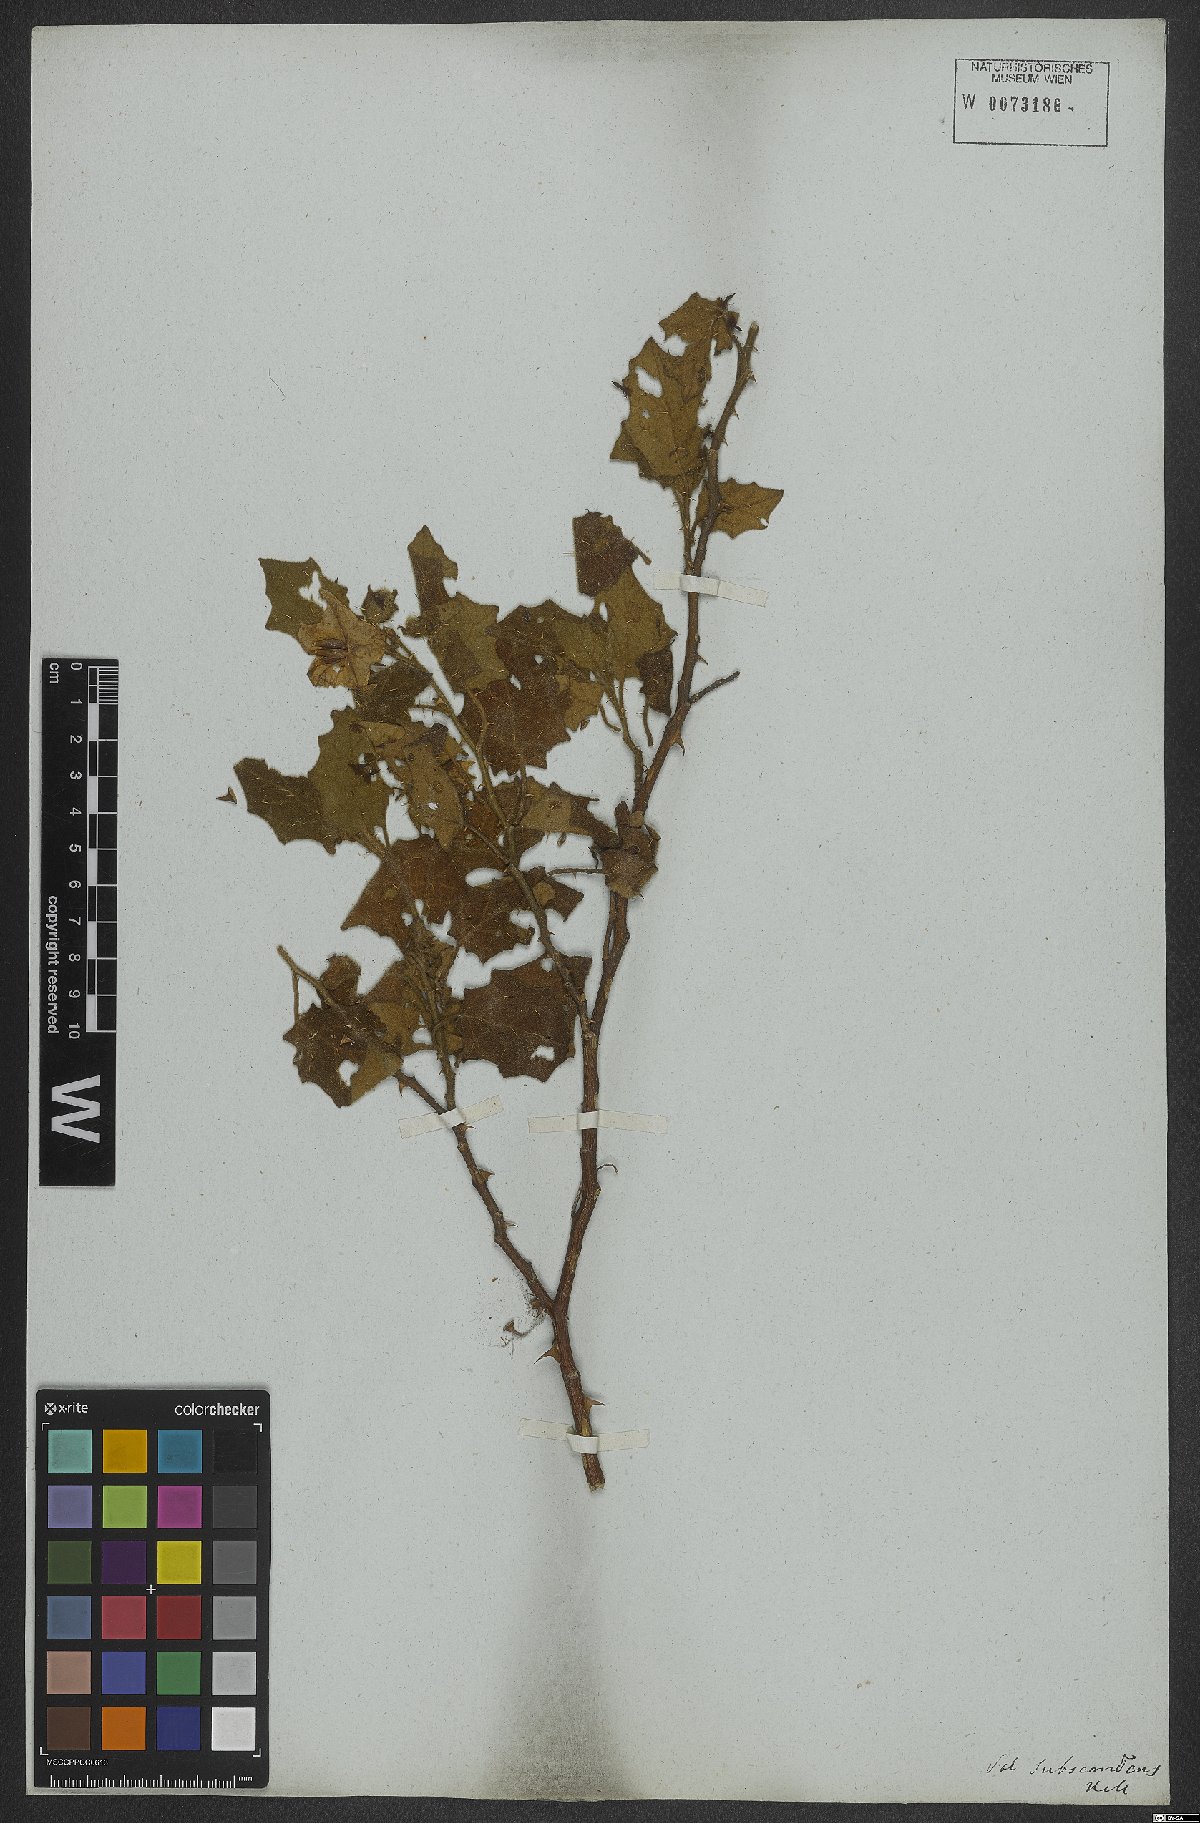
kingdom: Plantae
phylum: Tracheophyta
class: Magnoliopsida
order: Solanales
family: Solanaceae
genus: Solanum
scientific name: Solanum sublentum
